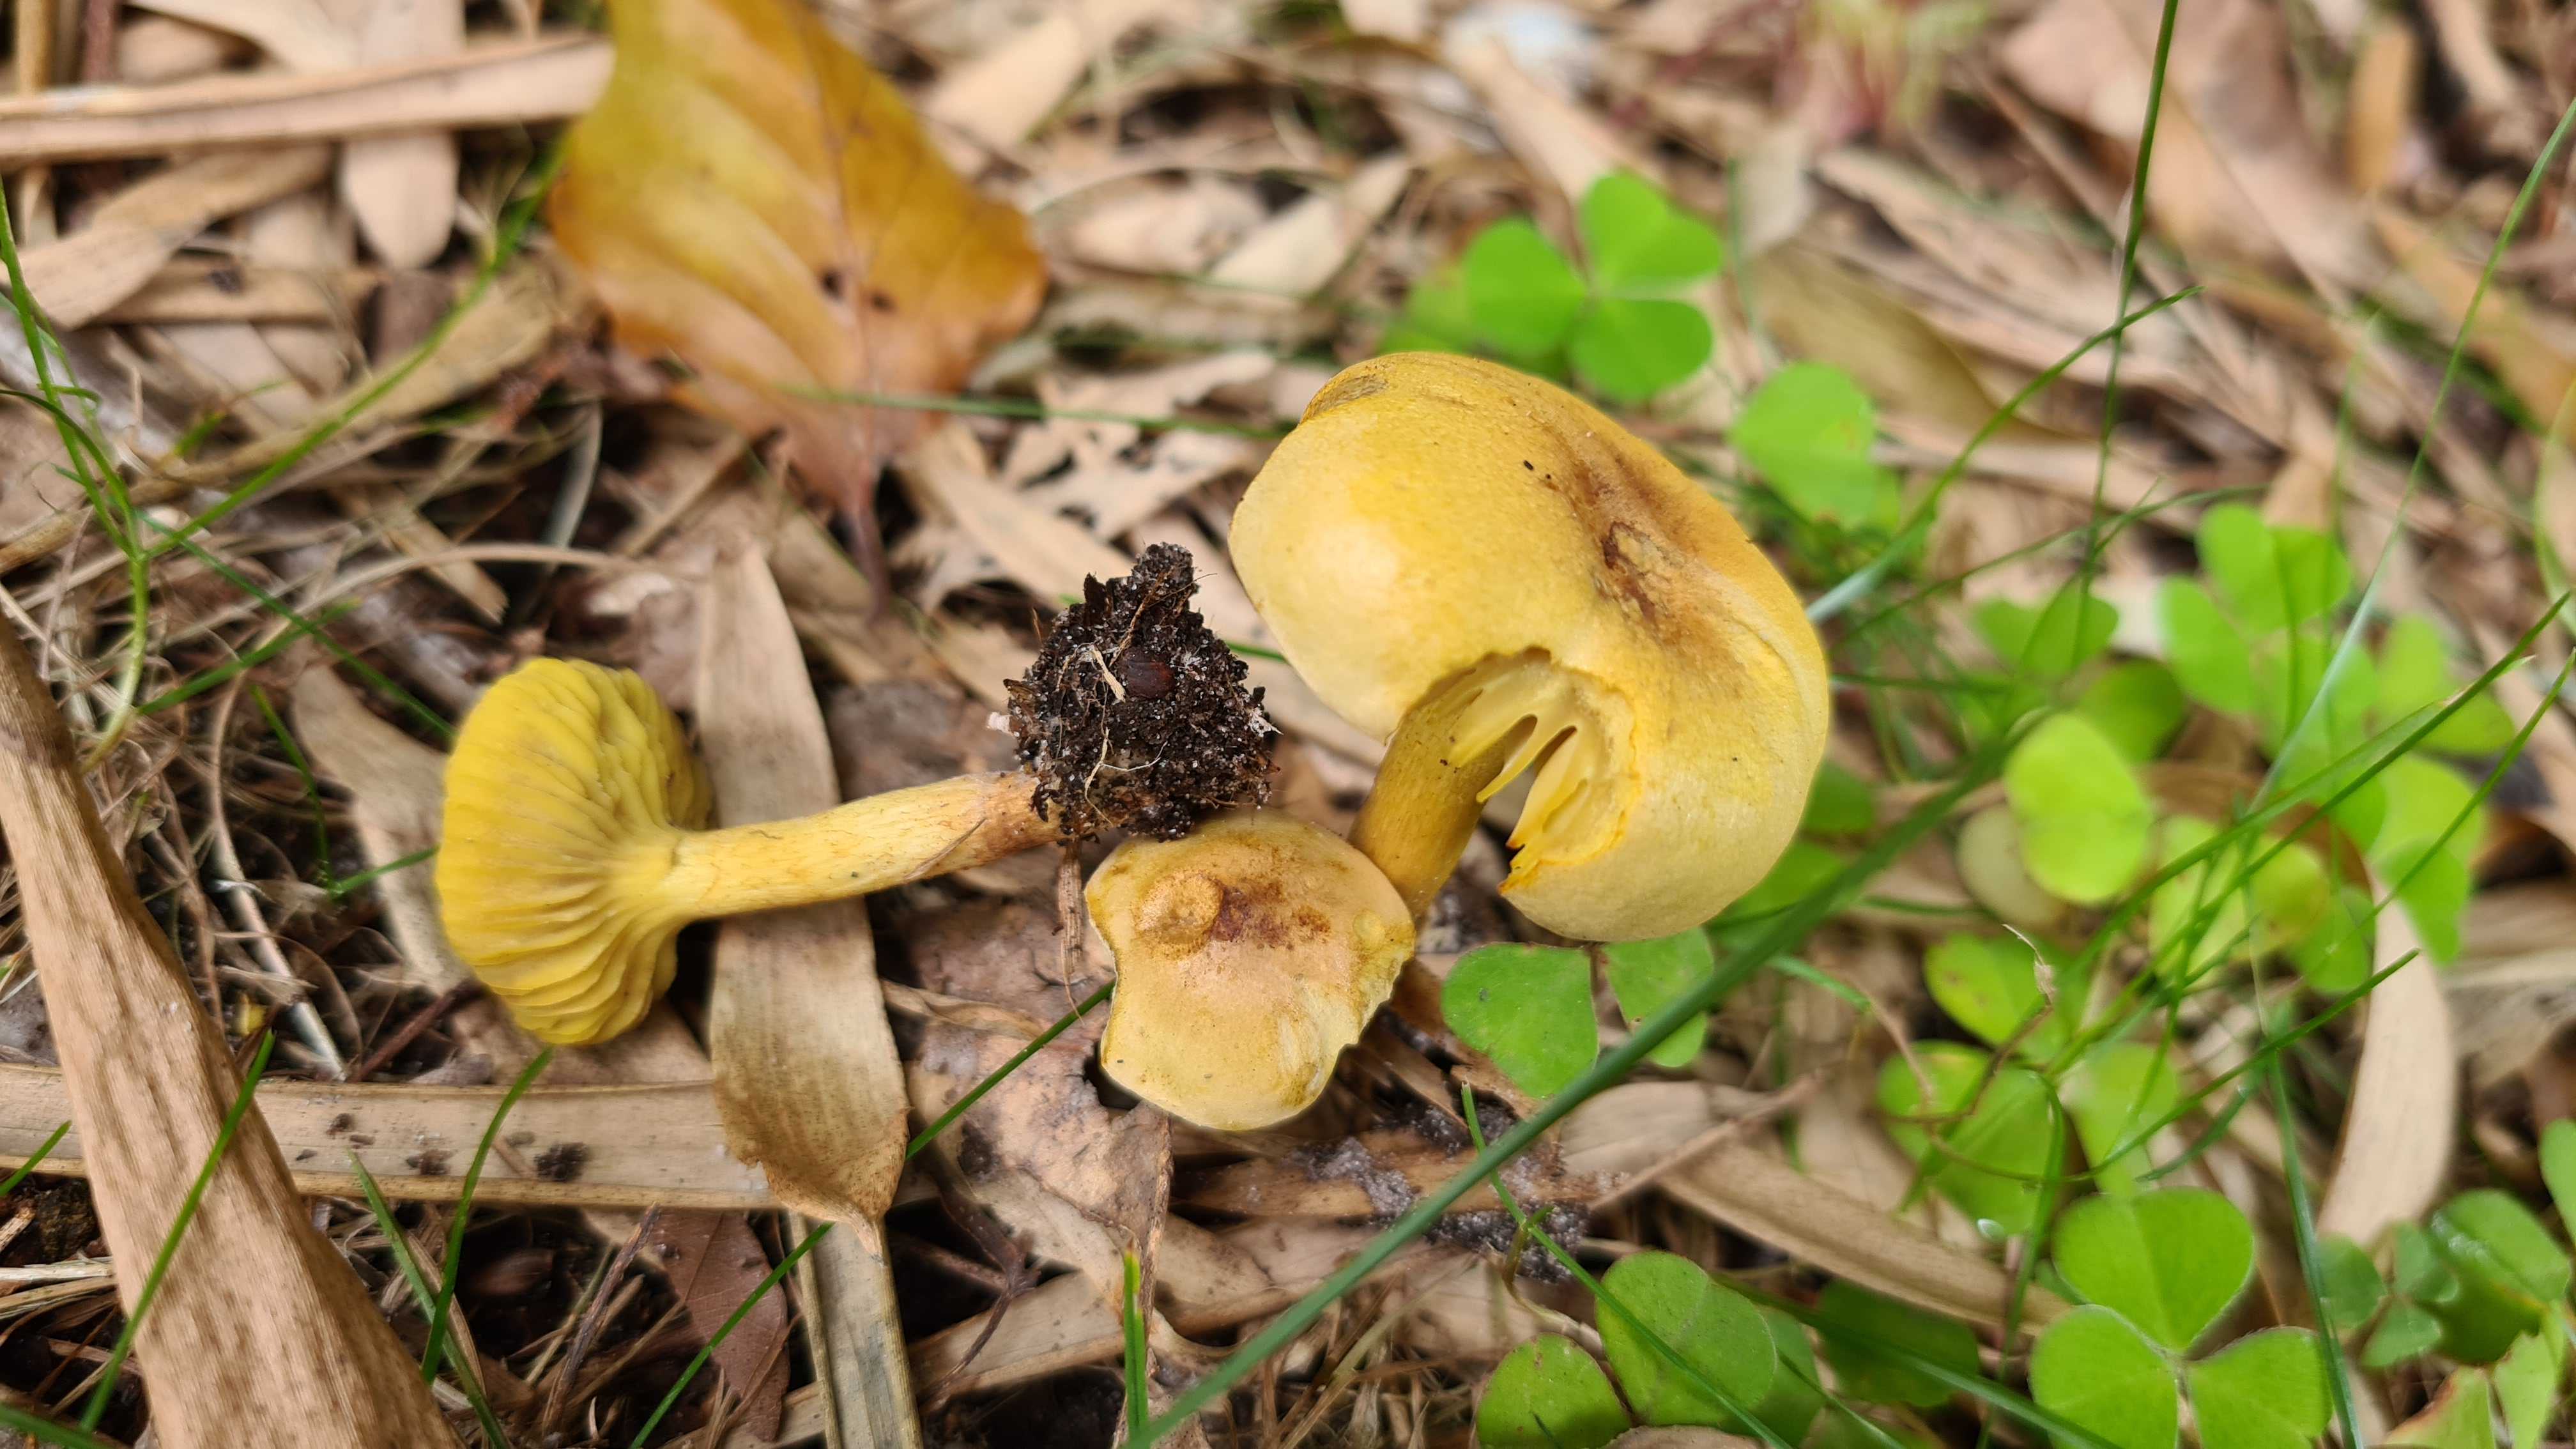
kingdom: Fungi
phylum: Basidiomycota
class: Agaricomycetes
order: Agaricales
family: Tricholomataceae
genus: Tricholoma
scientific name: Tricholoma sulphureum
